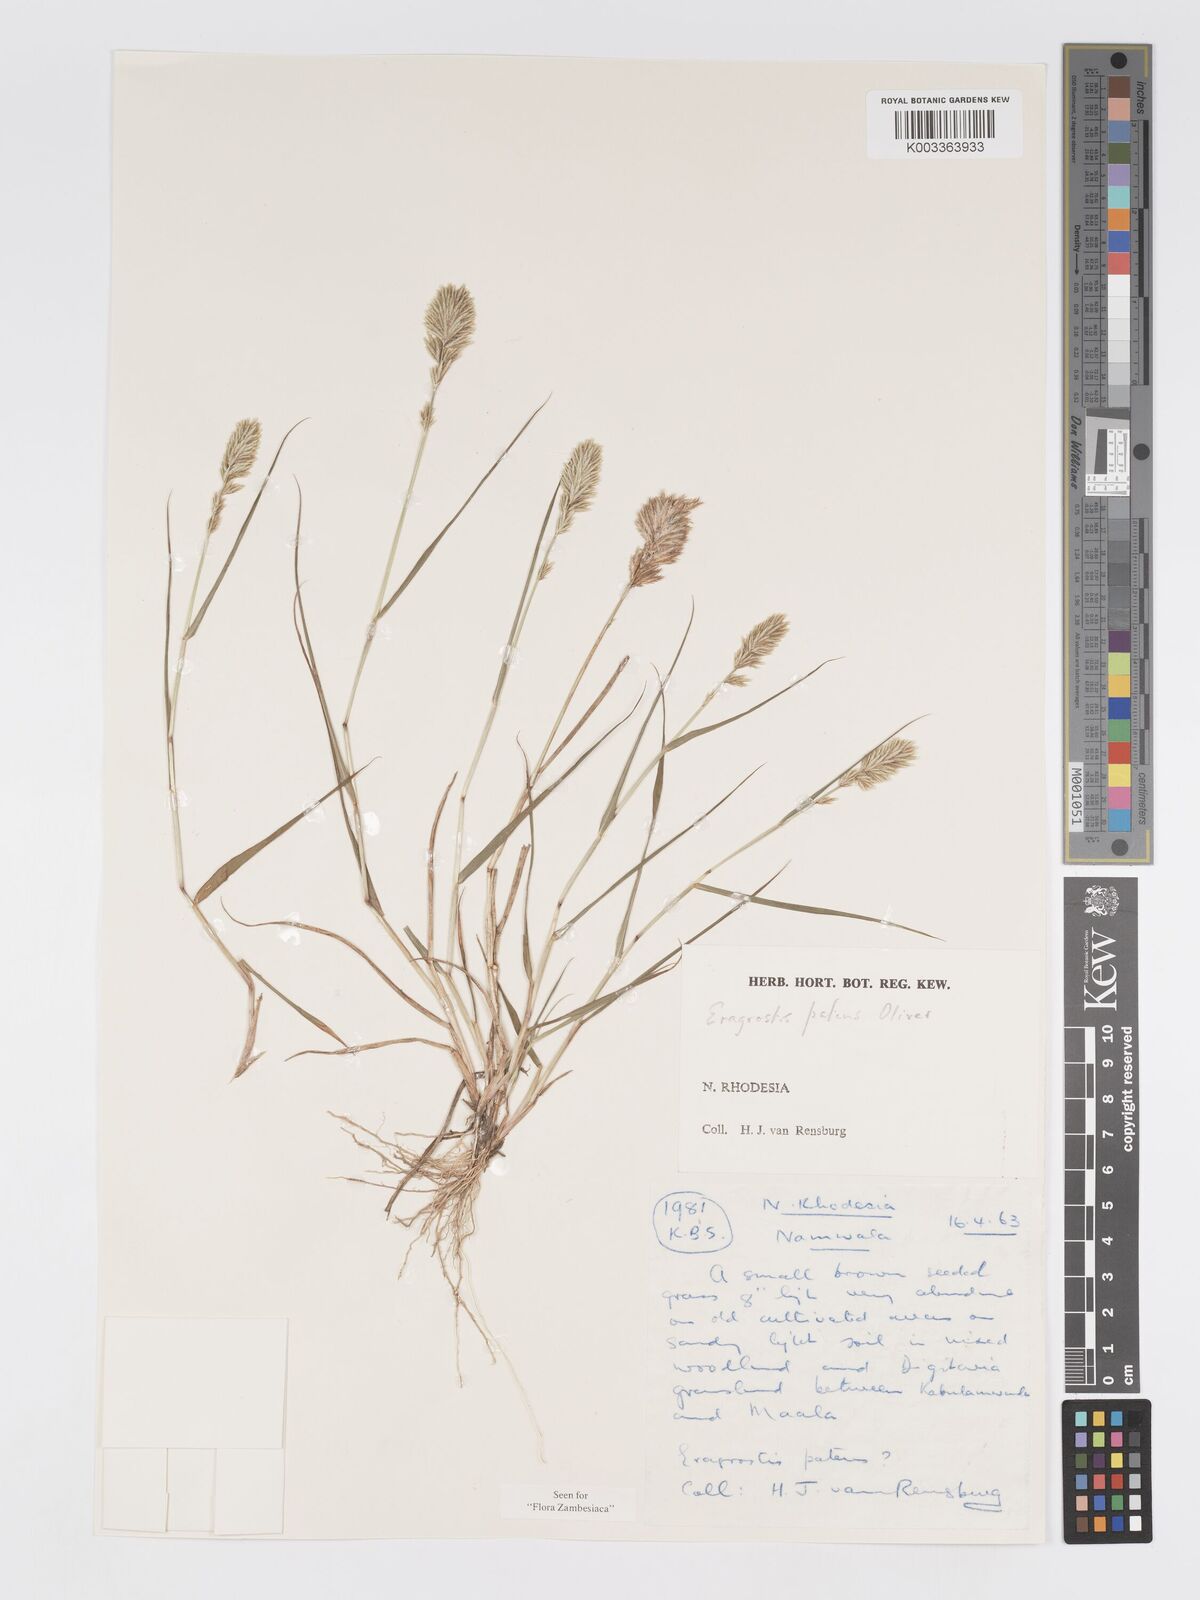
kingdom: Plantae
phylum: Tracheophyta
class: Liliopsida
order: Poales
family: Poaceae
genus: Eragrostis
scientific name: Eragrostis patens
